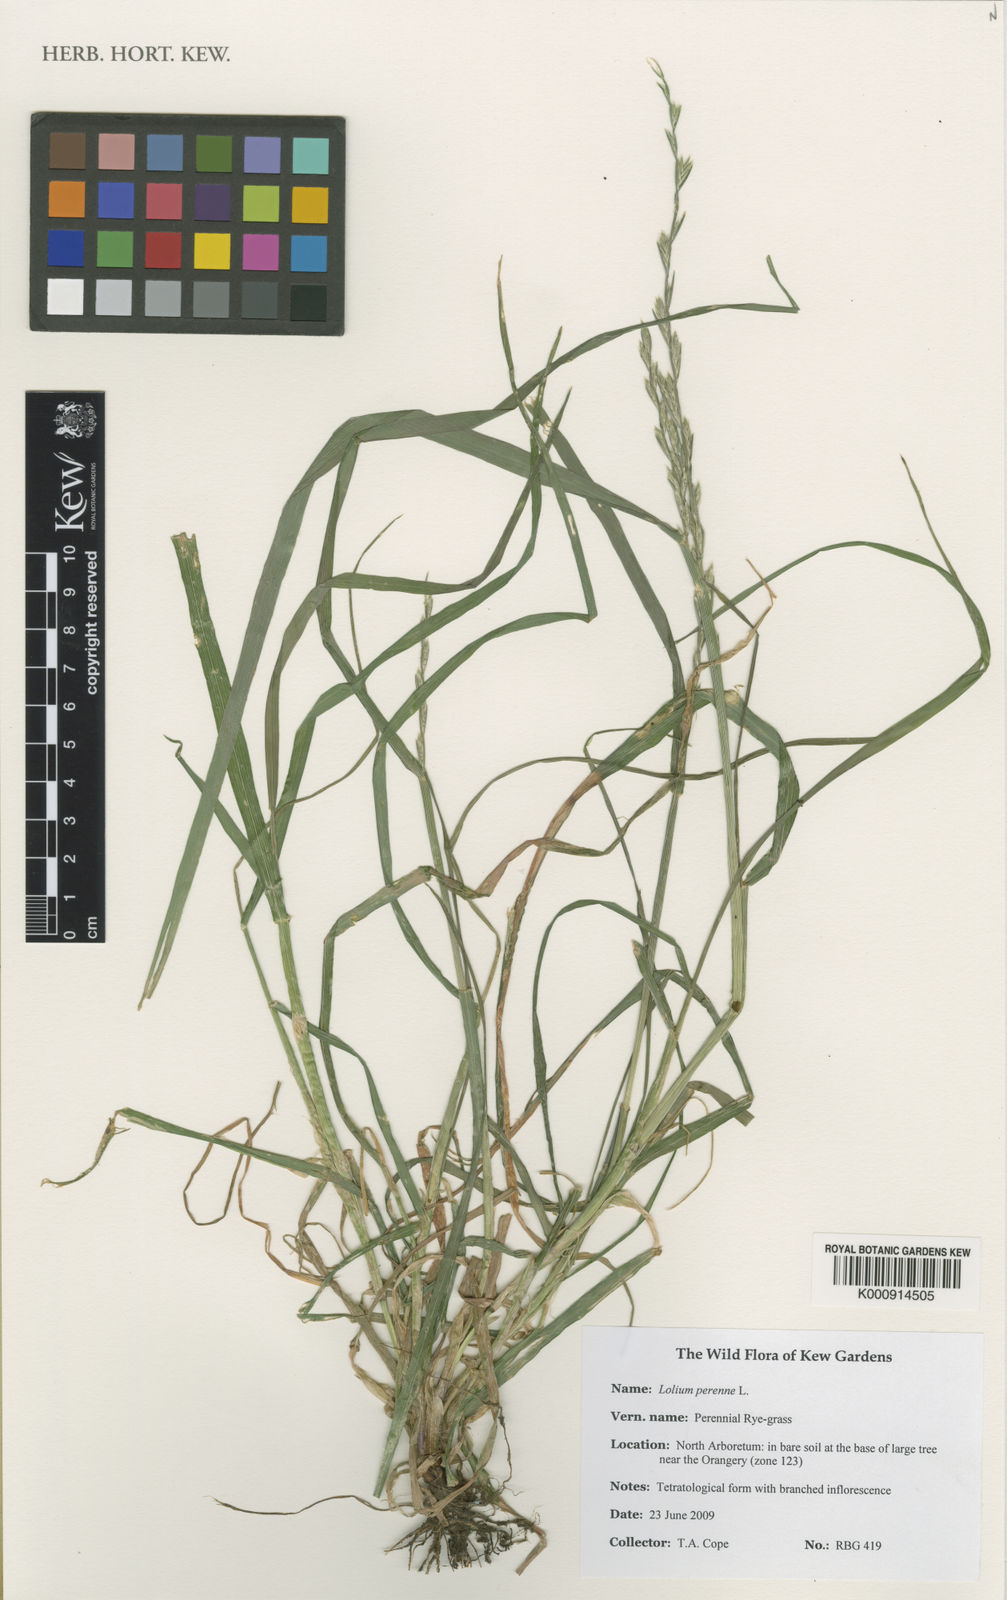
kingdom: Plantae
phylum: Tracheophyta
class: Liliopsida
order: Poales
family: Poaceae
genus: Lolium
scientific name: Lolium perenne
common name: Perennial ryegrass
